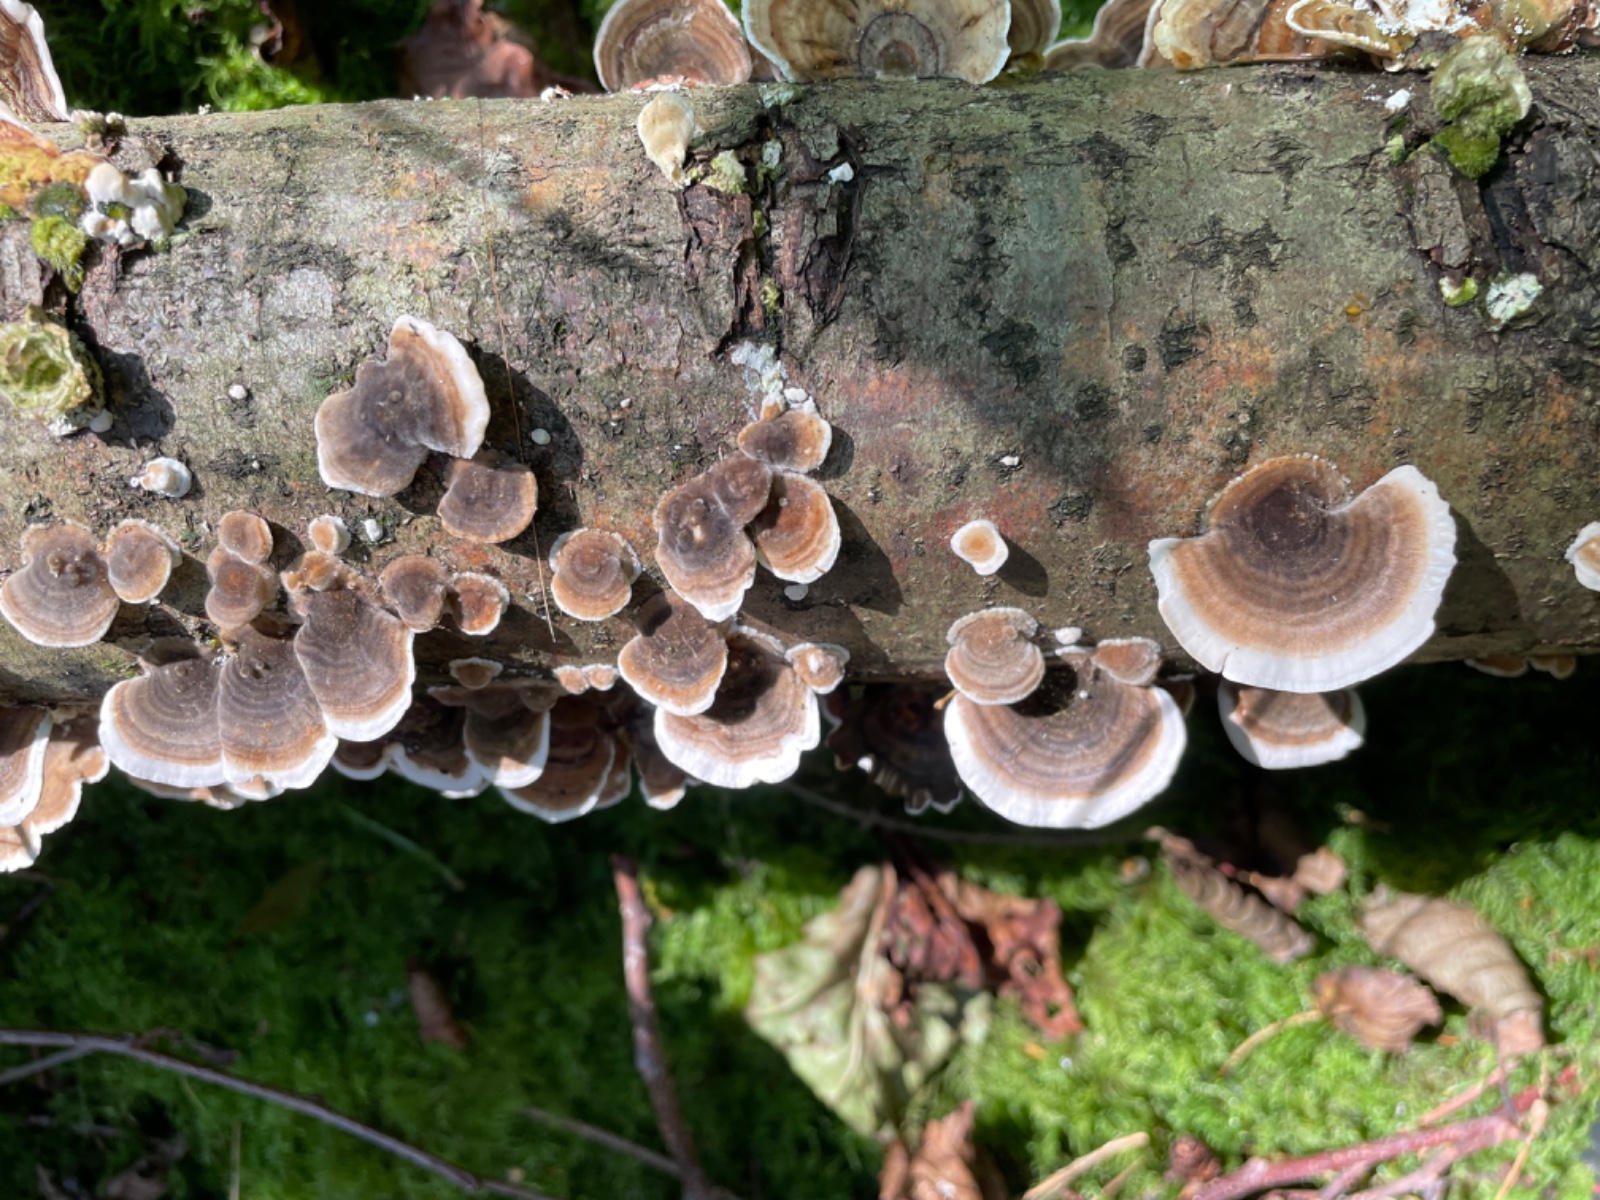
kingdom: Fungi
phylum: Basidiomycota
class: Agaricomycetes
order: Polyporales
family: Polyporaceae
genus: Trametes
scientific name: Trametes versicolor
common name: broget læderporesvamp
